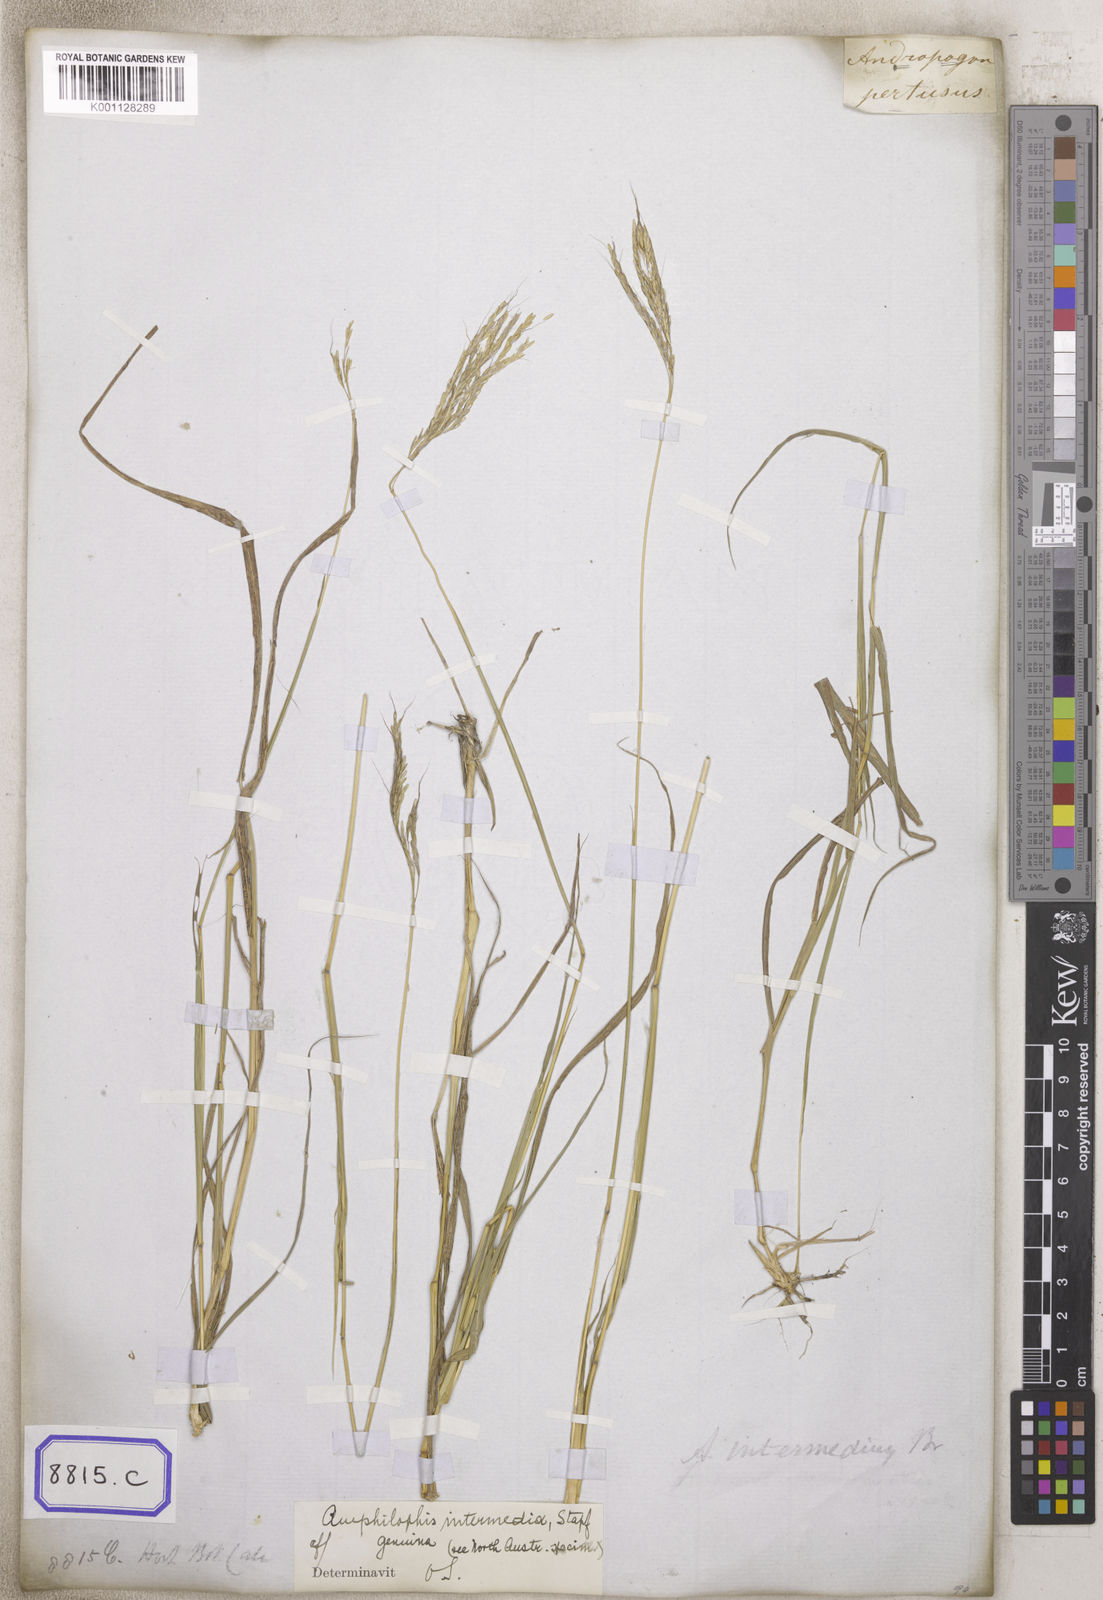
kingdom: Plantae
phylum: Tracheophyta
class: Liliopsida
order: Poales
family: Poaceae
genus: Andropogon
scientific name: Andropogon
